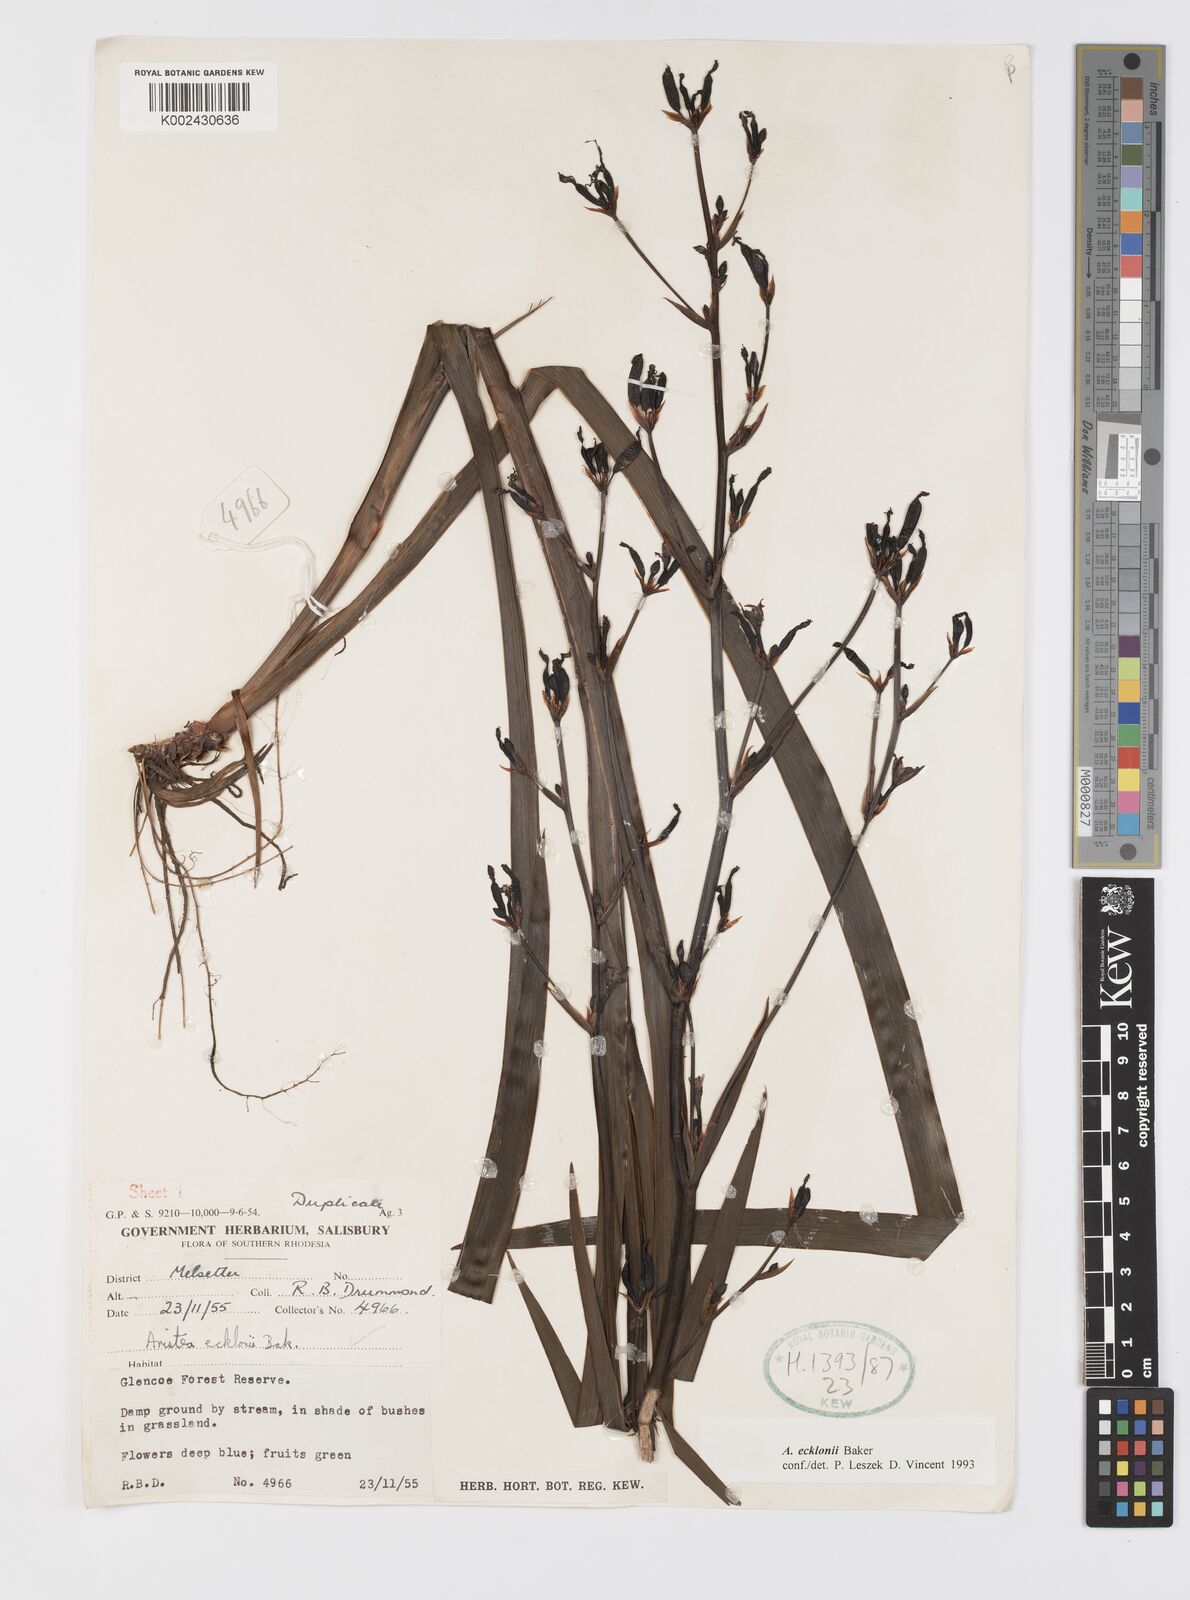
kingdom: Plantae
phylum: Tracheophyta
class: Liliopsida
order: Asparagales
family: Iridaceae
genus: Aristea
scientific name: Aristea ecklonii
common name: Blue corn-lily
